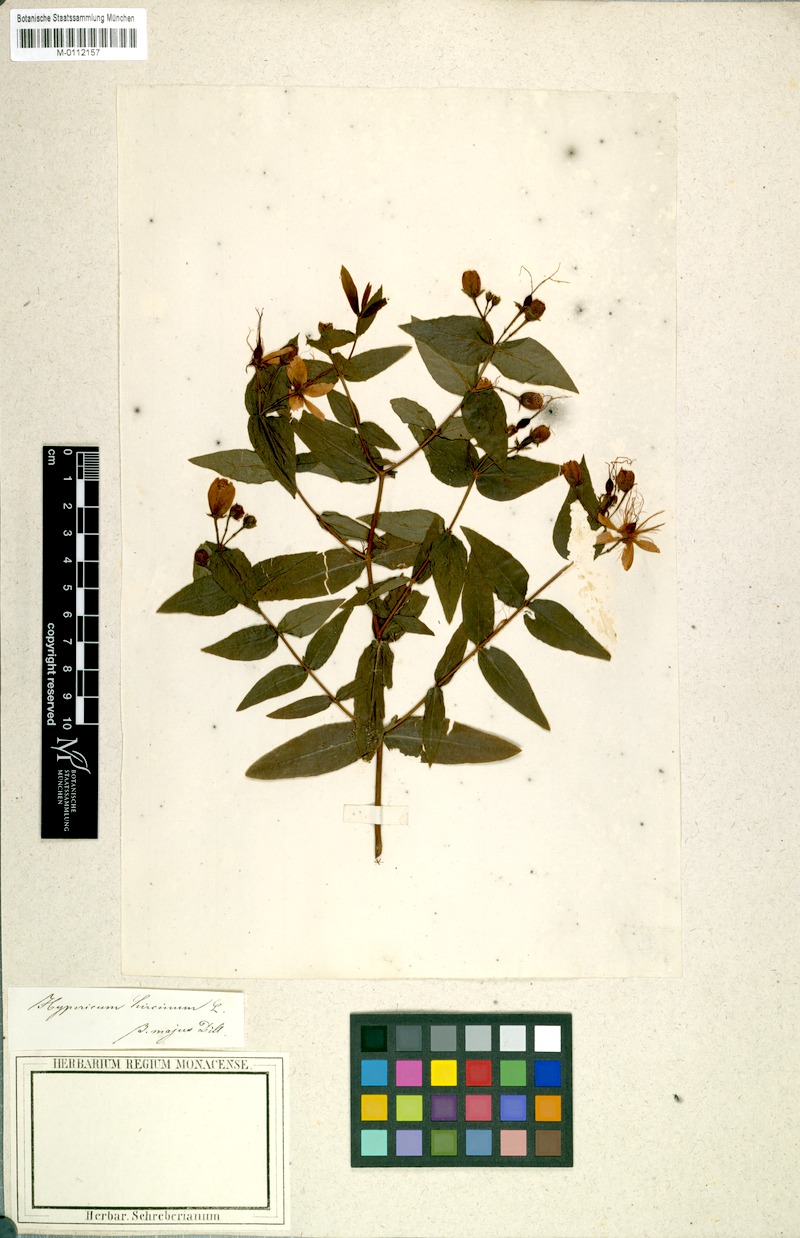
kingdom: Plantae
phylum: Tracheophyta
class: Magnoliopsida
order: Malpighiales
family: Hypericaceae
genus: Hypericum
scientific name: Hypericum hircinum
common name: Stinking tutsan
